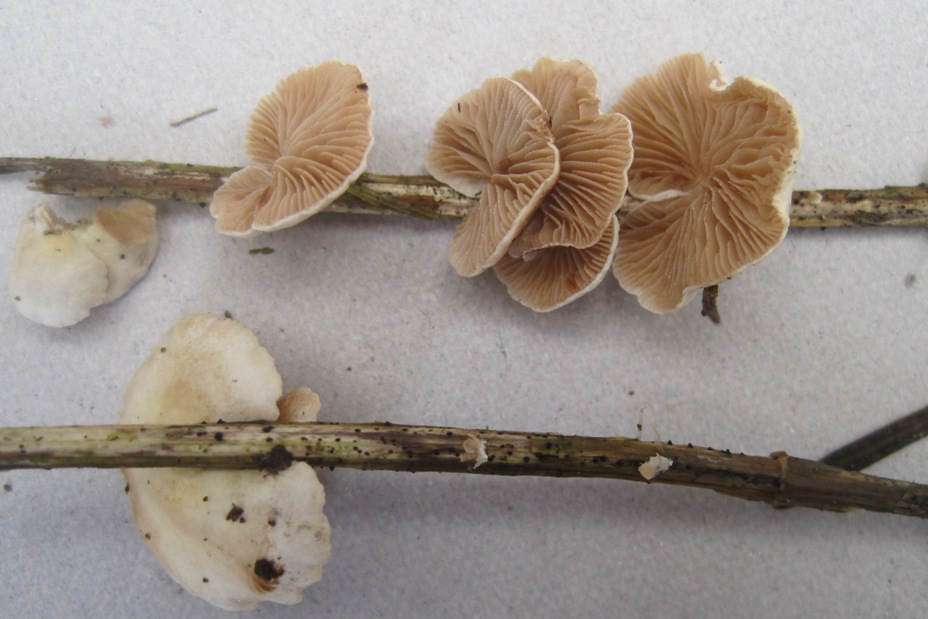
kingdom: Fungi
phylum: Basidiomycota
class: Agaricomycetes
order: Agaricales
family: Crepidotaceae
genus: Crepidotus
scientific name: Crepidotus luteolus
